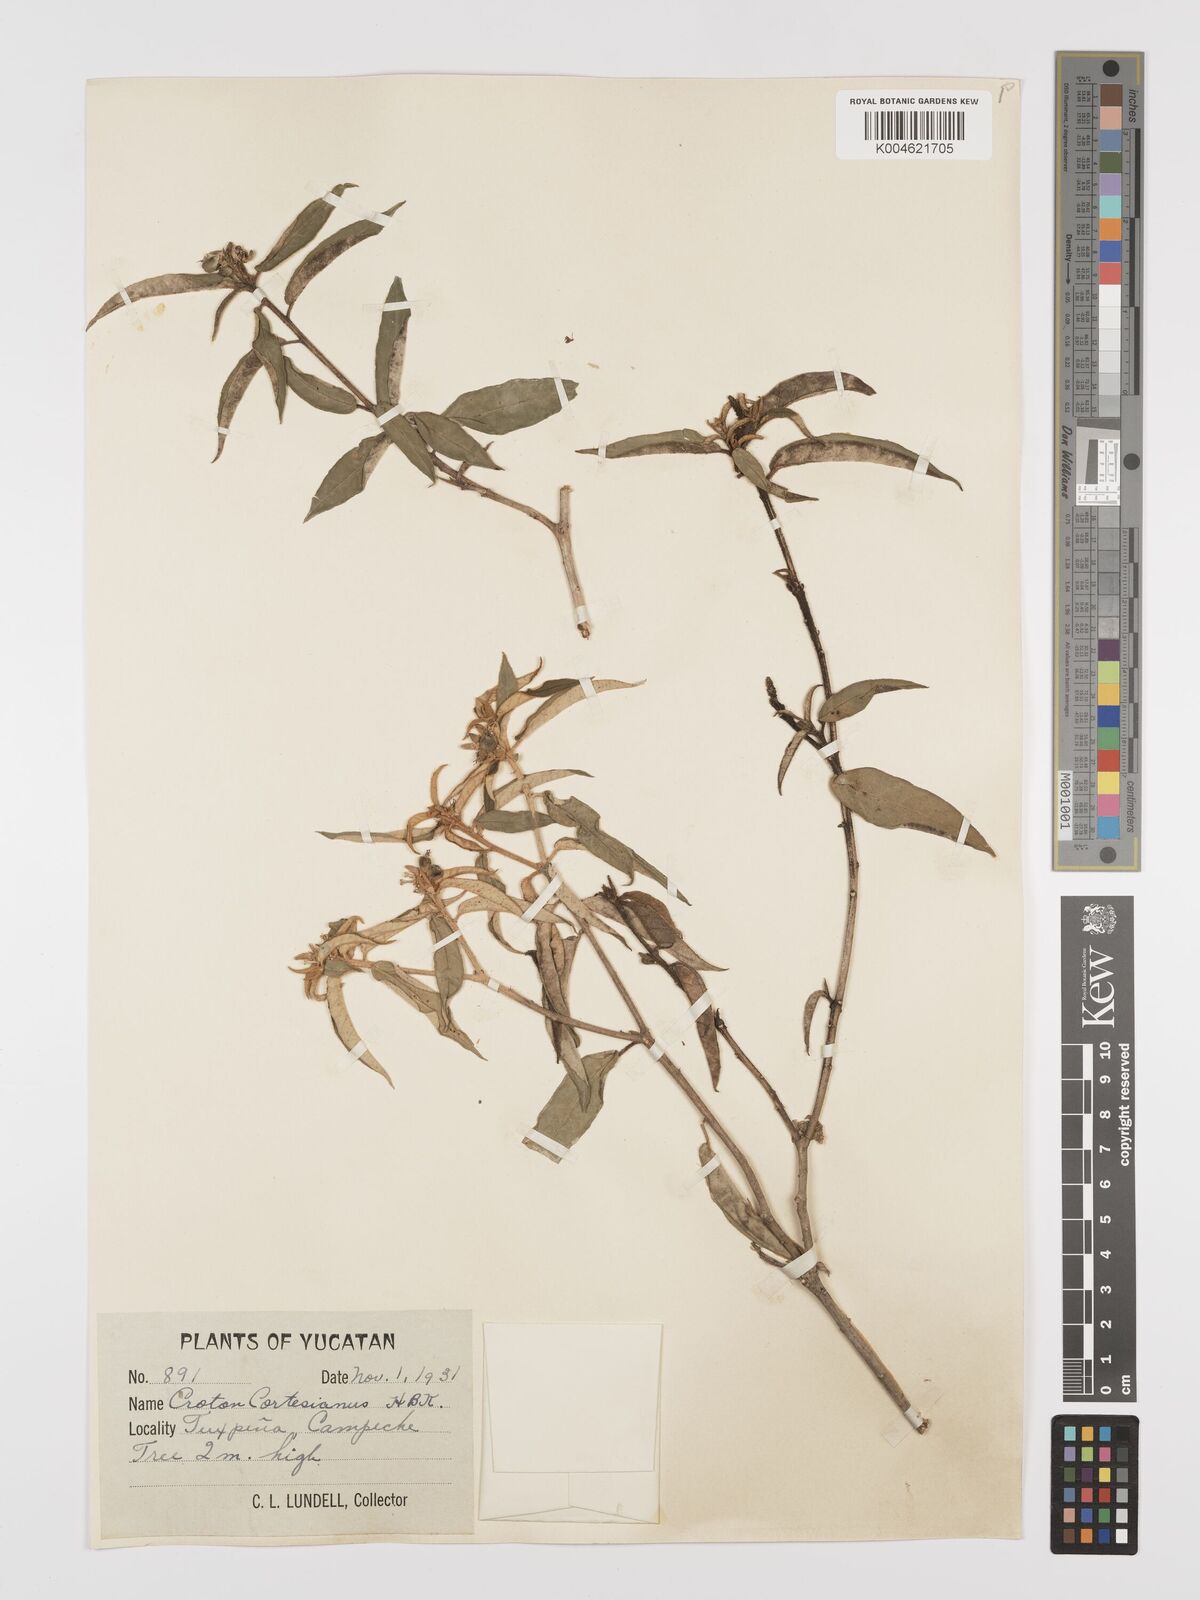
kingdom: Plantae
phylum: Tracheophyta
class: Magnoliopsida
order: Malpighiales
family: Euphorbiaceae
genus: Croton
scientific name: Croton cortesianus
